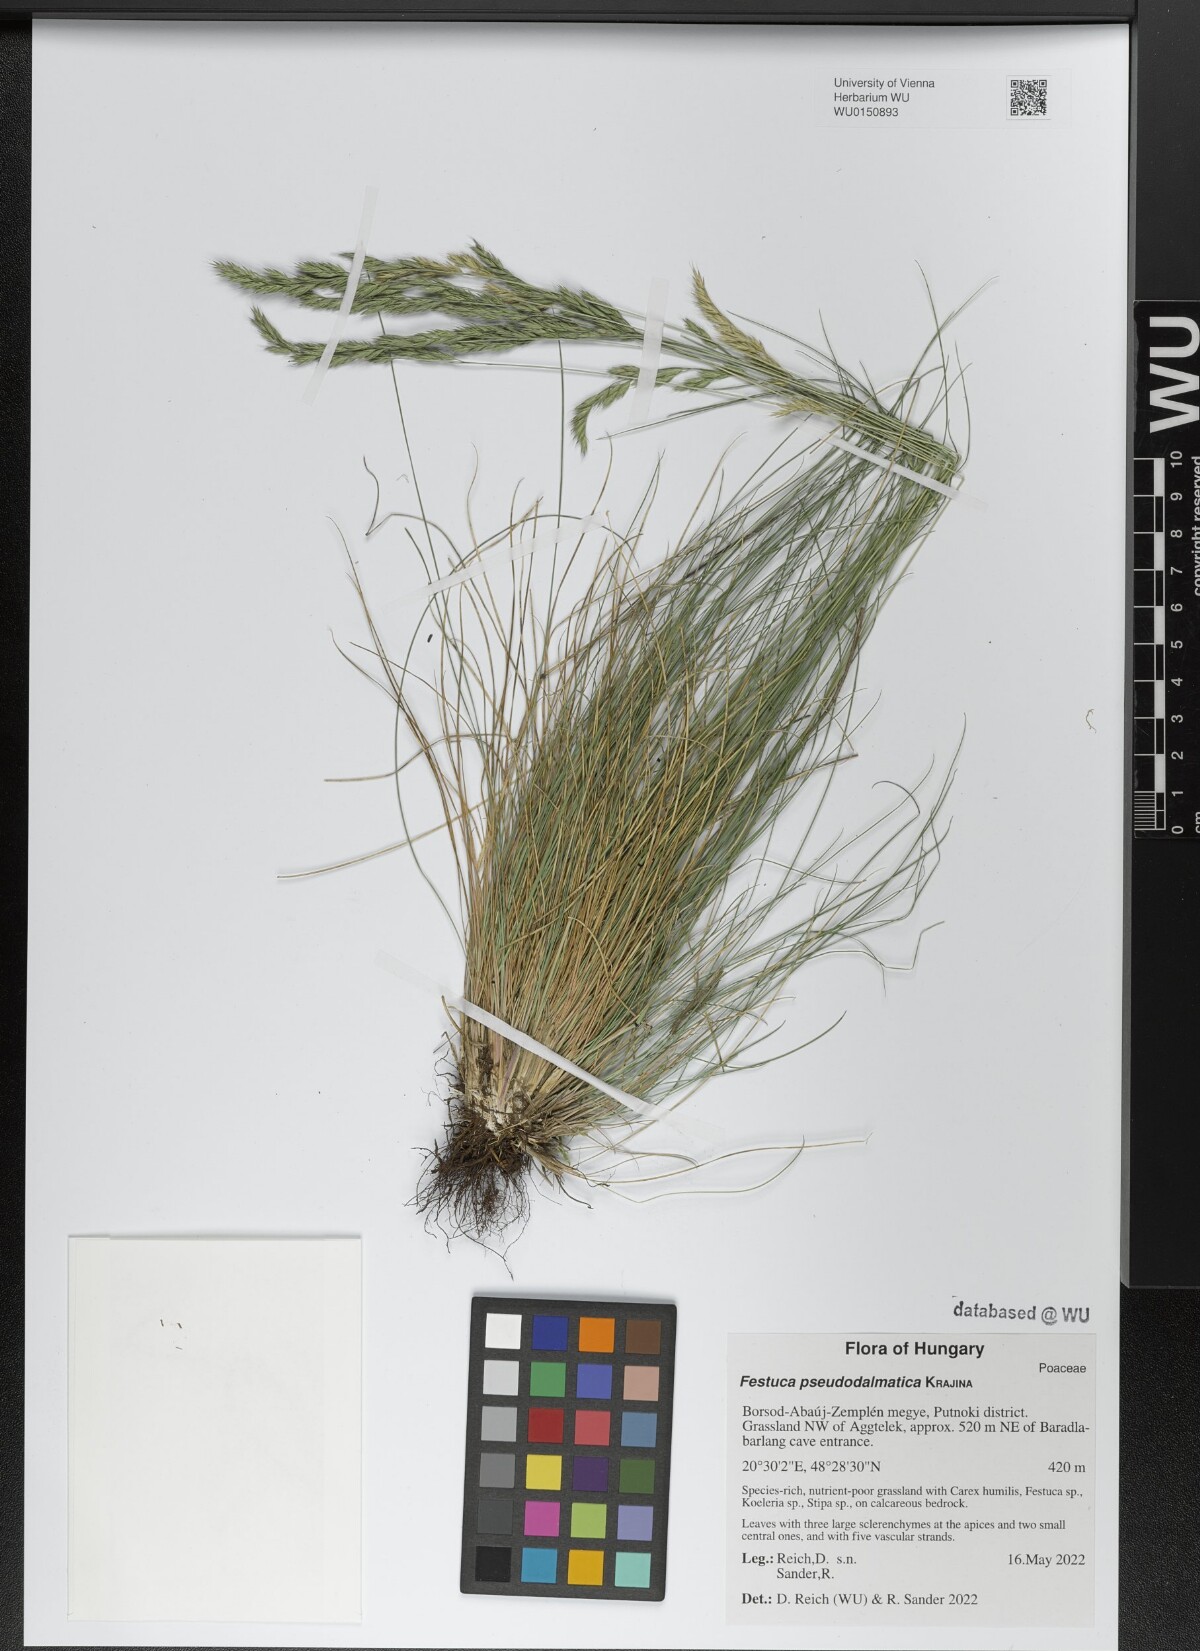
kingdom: Plantae
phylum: Tracheophyta
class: Liliopsida
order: Poales
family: Poaceae
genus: Festuca
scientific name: Festuca pseudodalmatica
